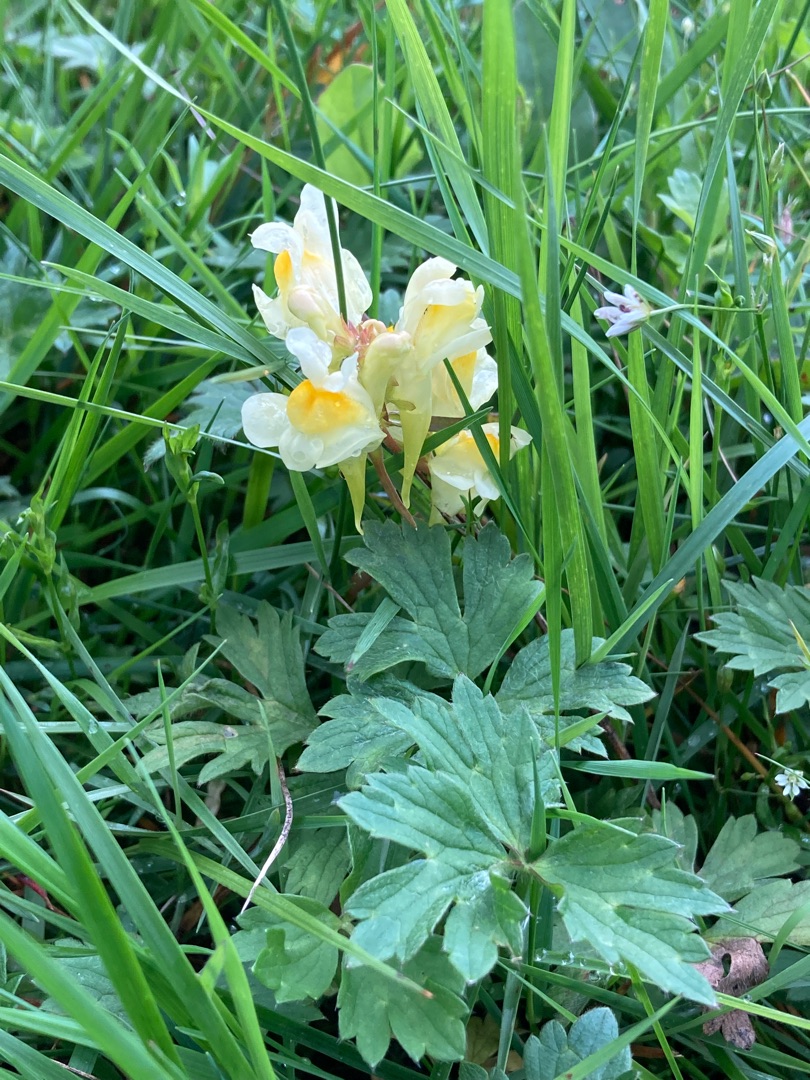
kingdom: Plantae
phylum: Tracheophyta
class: Magnoliopsida
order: Lamiales
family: Plantaginaceae
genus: Linaria
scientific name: Linaria vulgaris
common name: Almindelig torskemund
